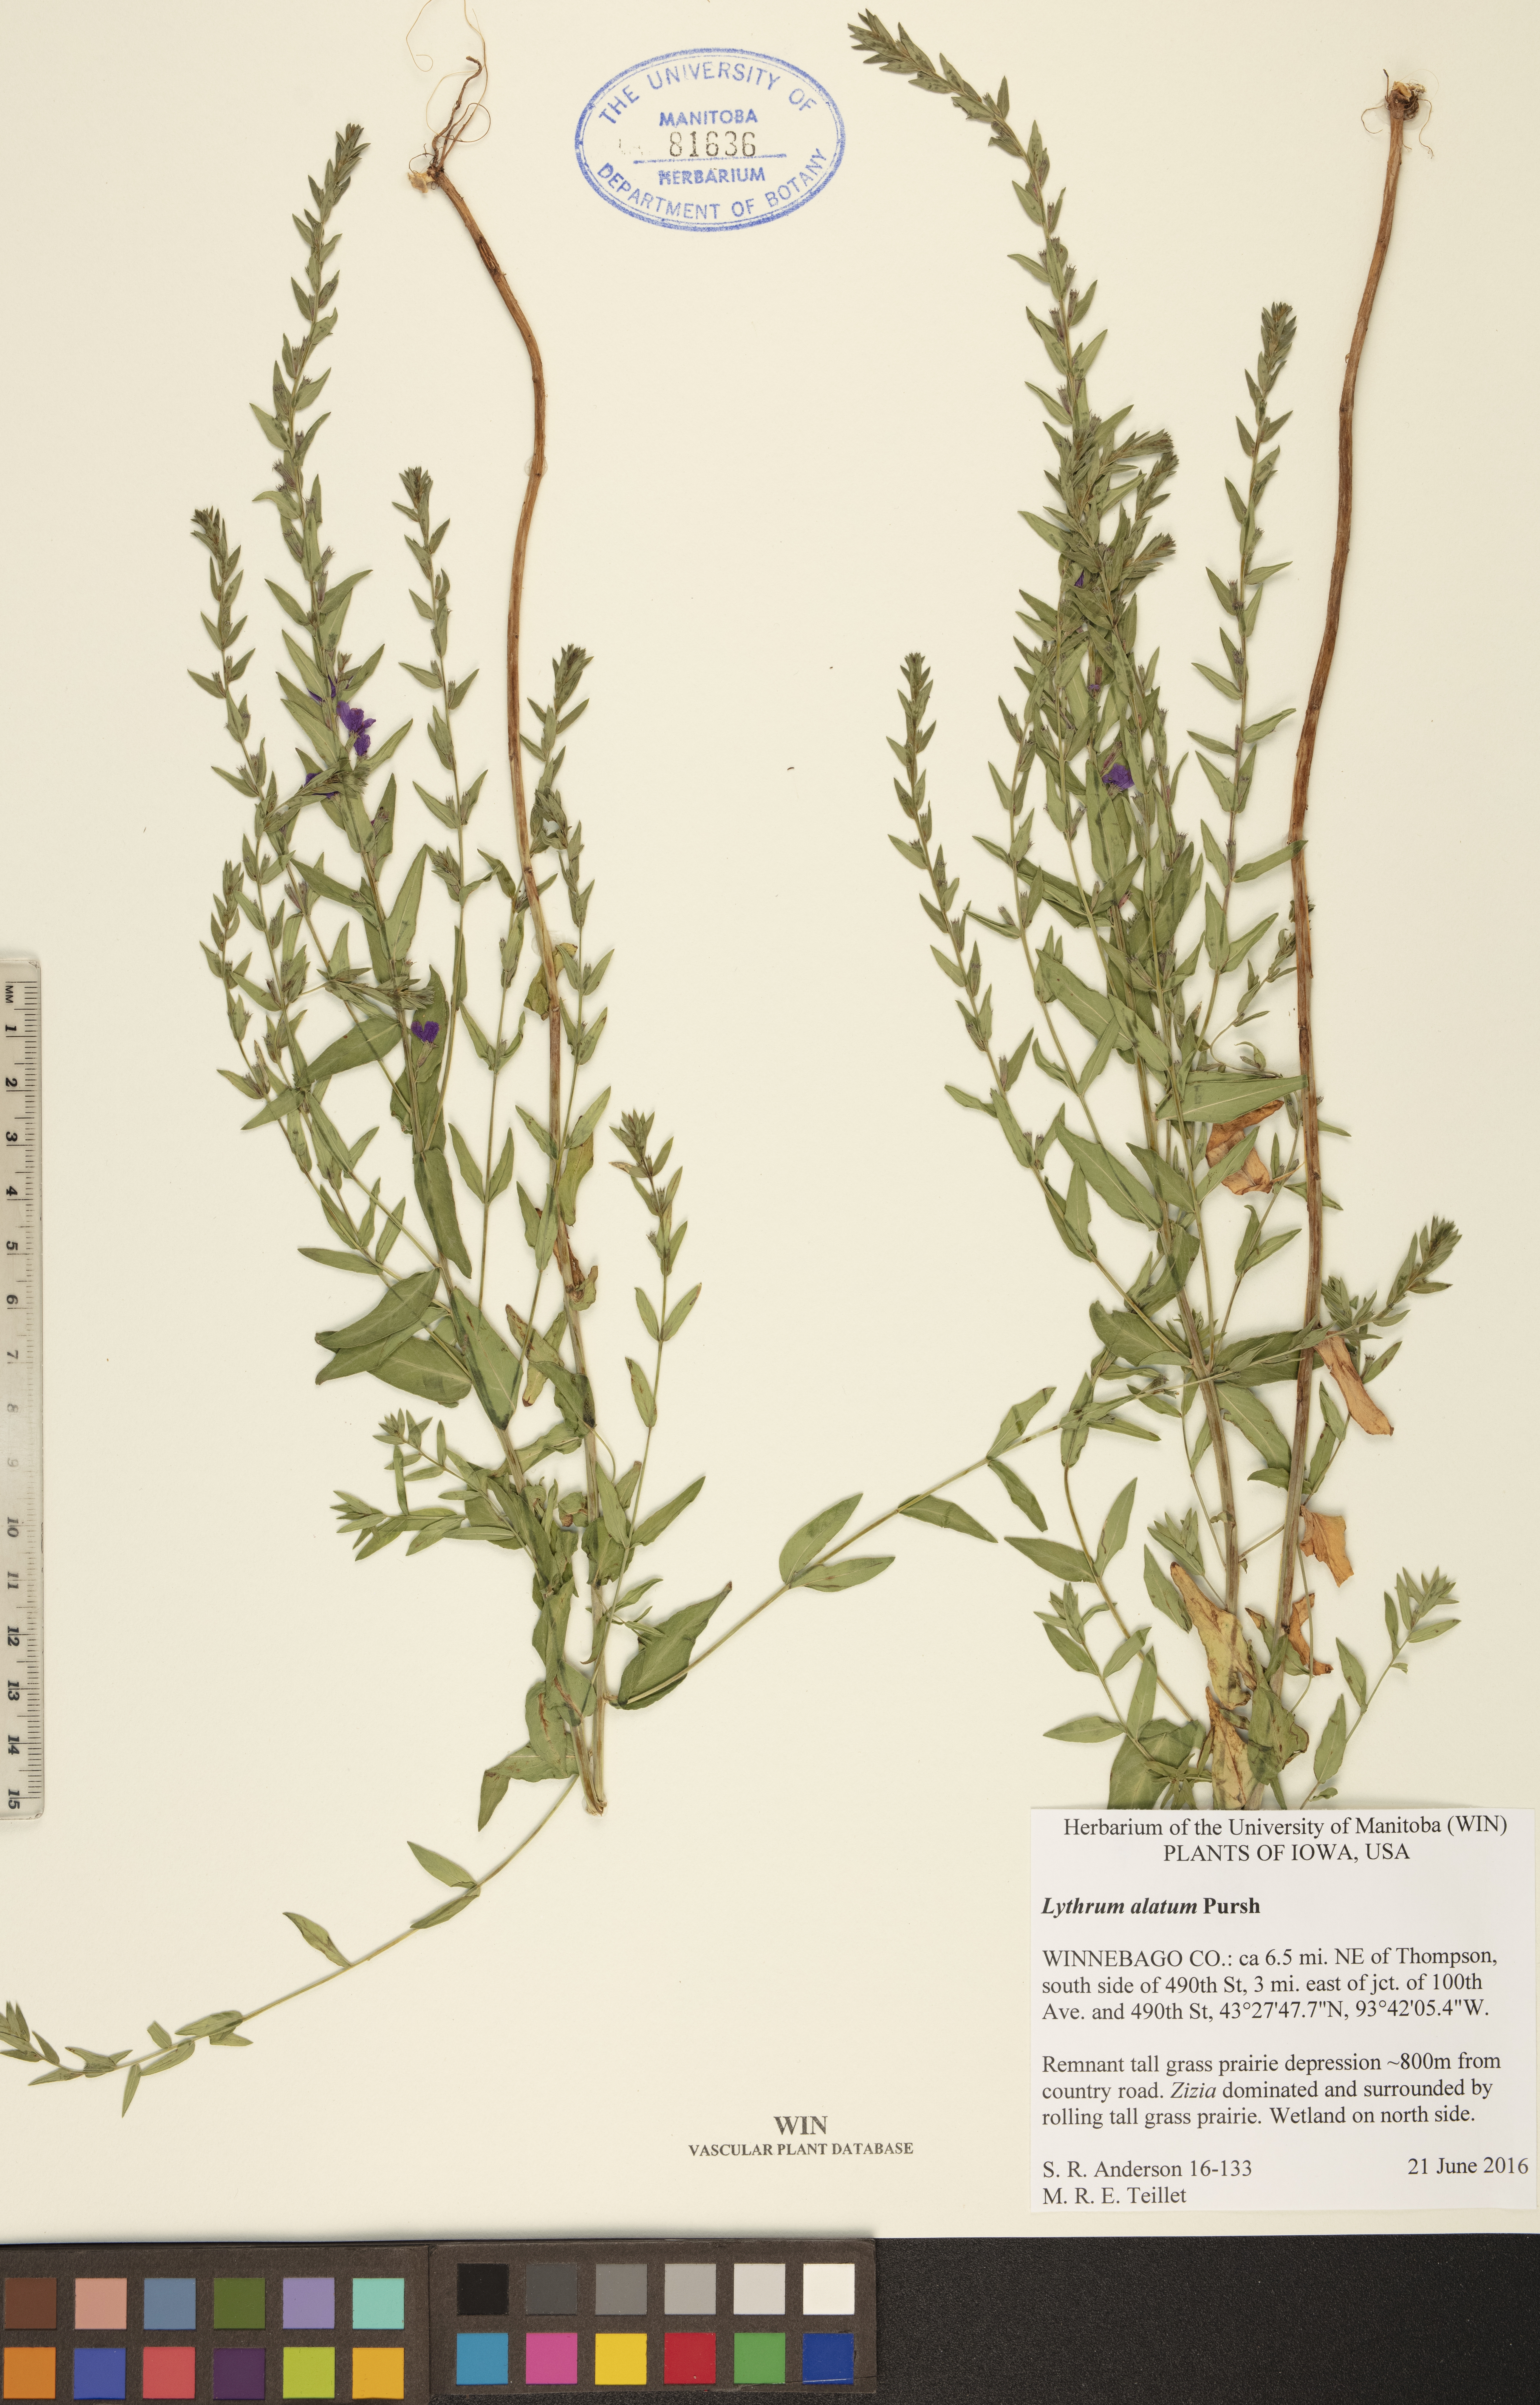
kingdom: Plantae
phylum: Tracheophyta
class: Magnoliopsida
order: Myrtales
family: Lythraceae
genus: Lythrum
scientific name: Lythrum alatum
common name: Winged loosestrife
